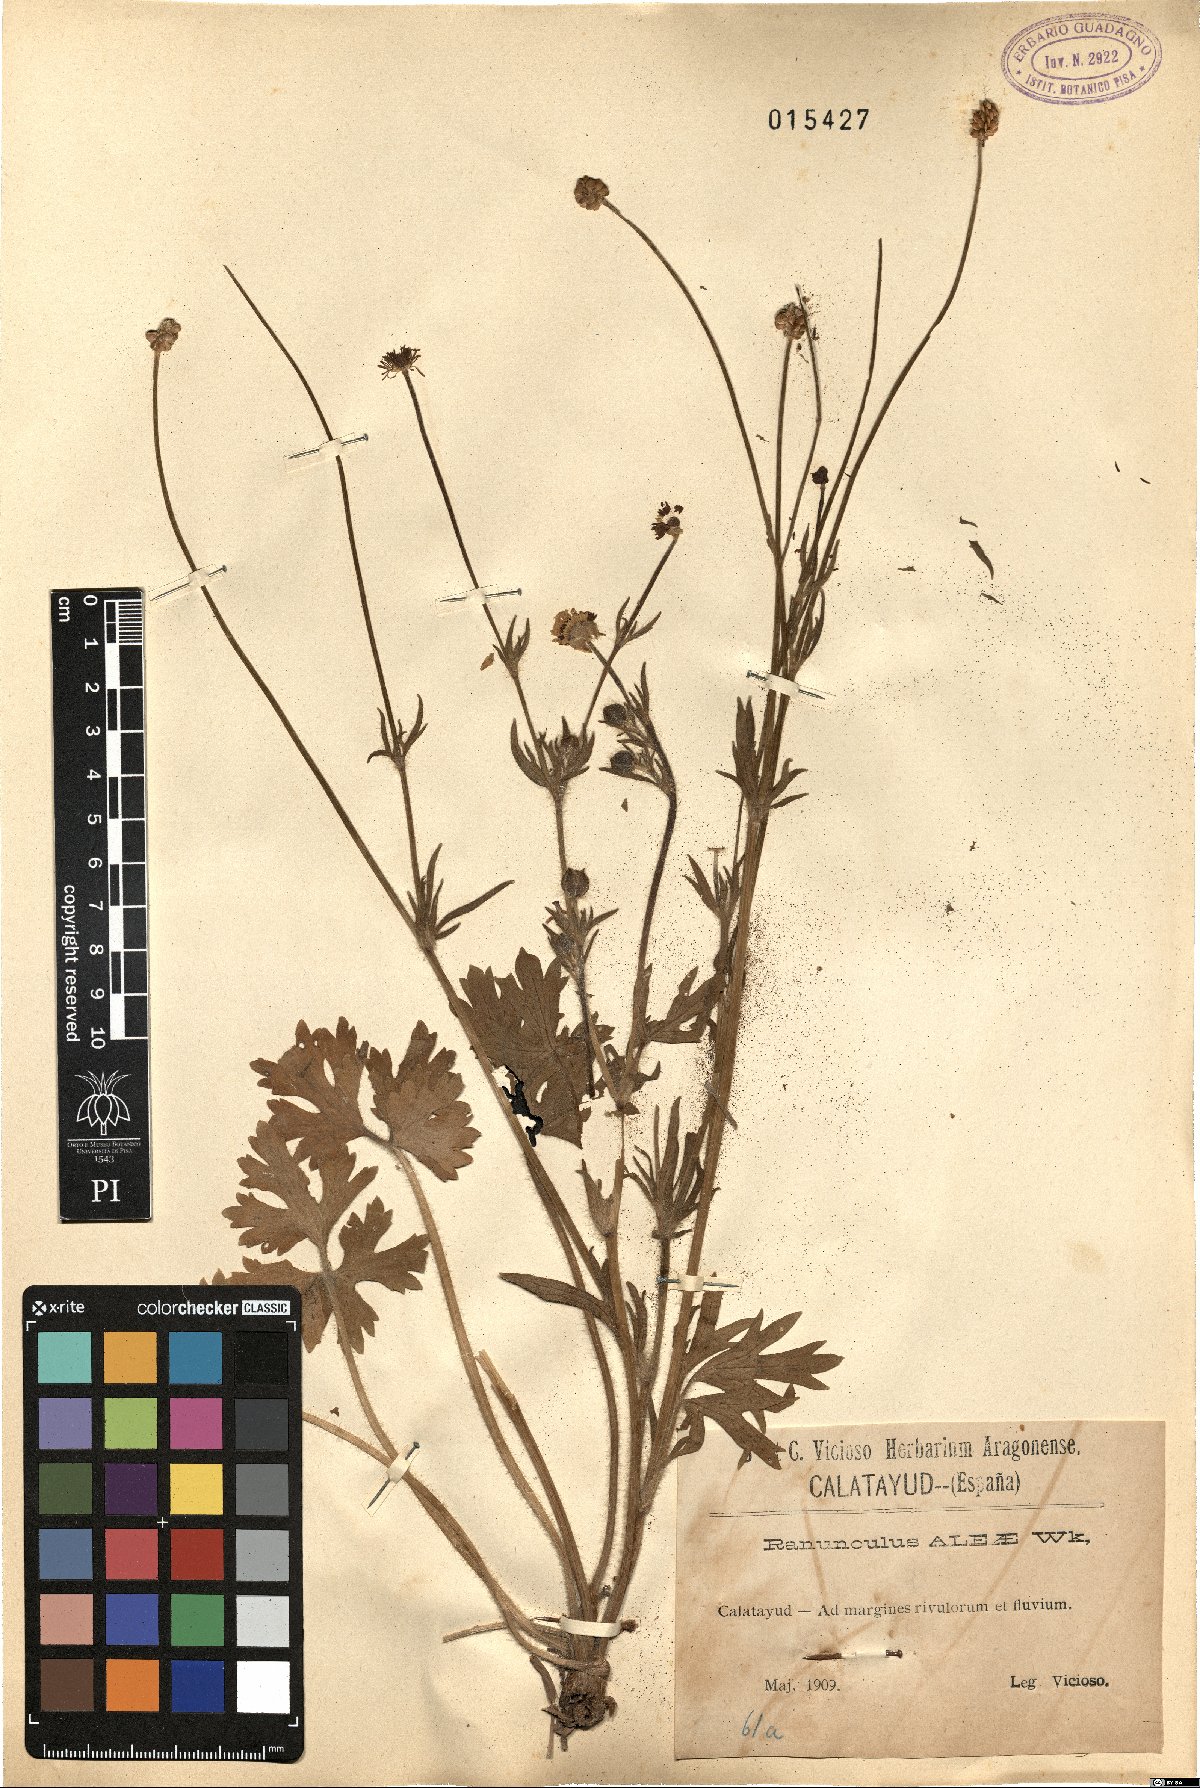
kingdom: Plantae
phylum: Tracheophyta
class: Magnoliopsida
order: Ranunculales
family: Ranunculaceae
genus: Ranunculus
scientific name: Ranunculus neapolitanus
